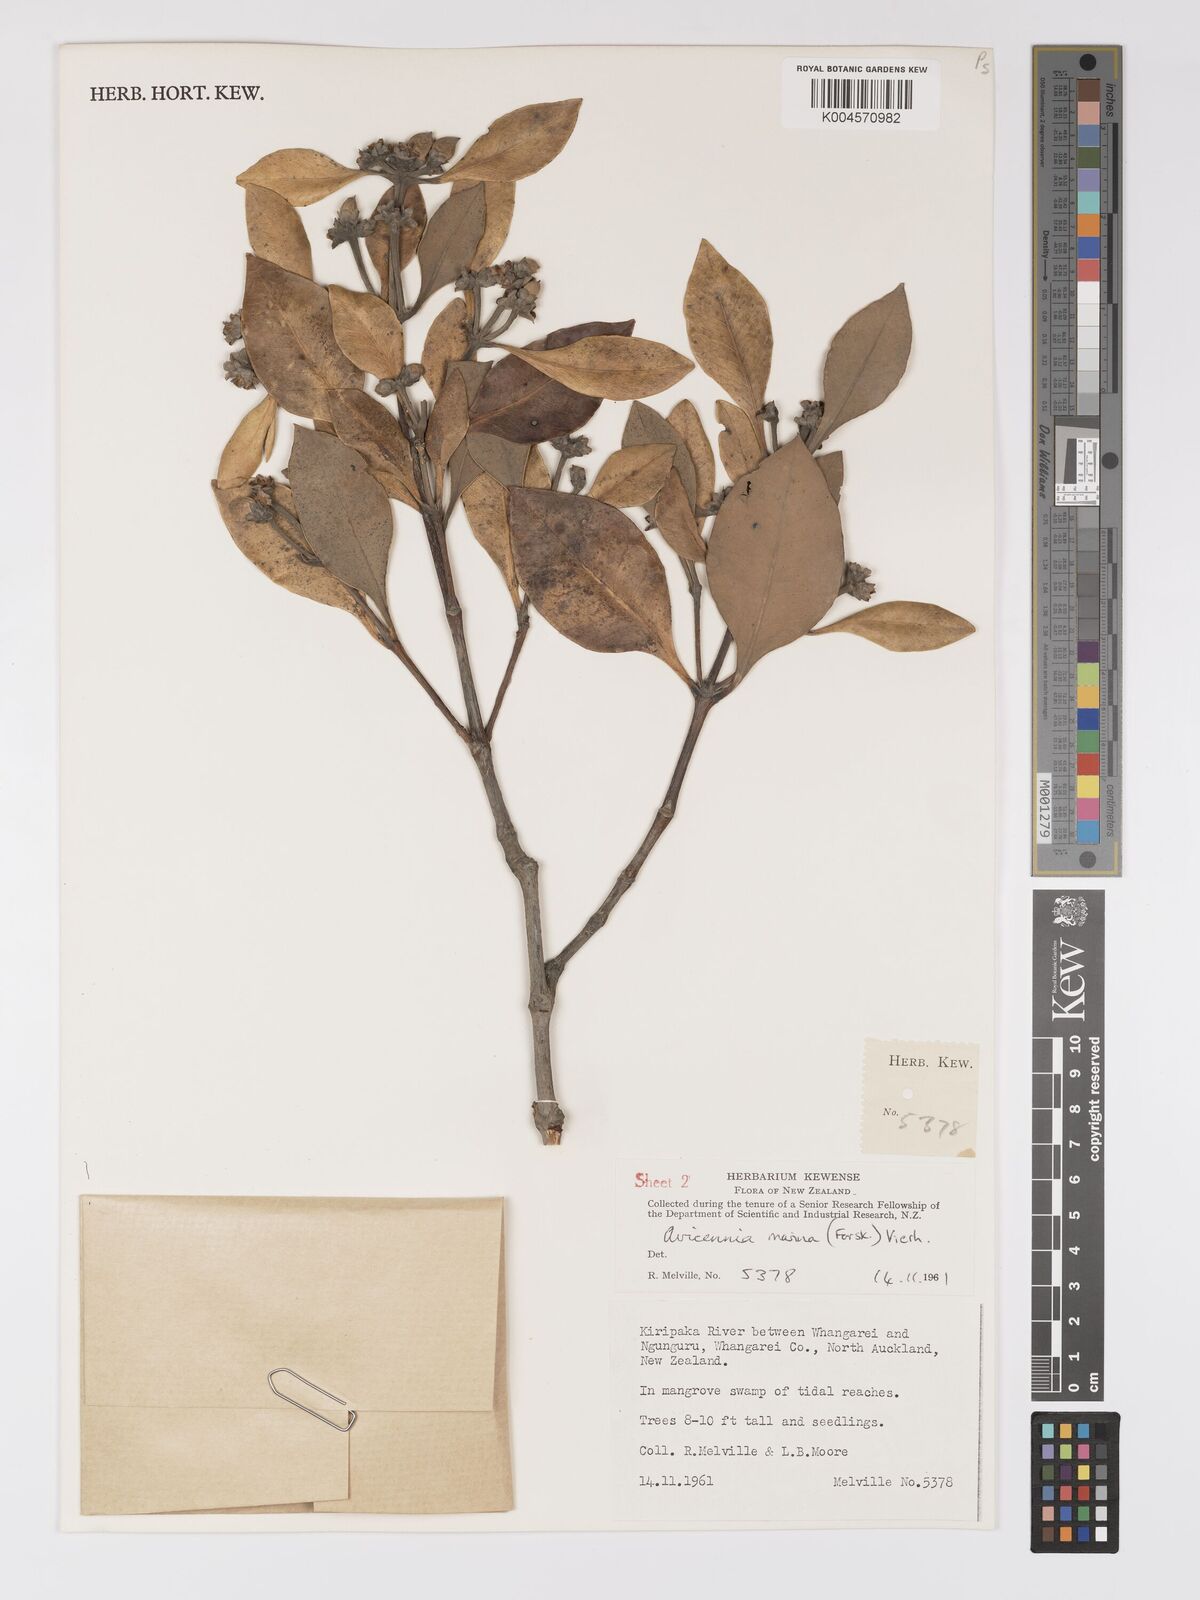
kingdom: Plantae
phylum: Tracheophyta
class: Magnoliopsida
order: Lamiales
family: Acanthaceae
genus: Avicennia
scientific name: Avicennia marina
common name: Gray mangrove
